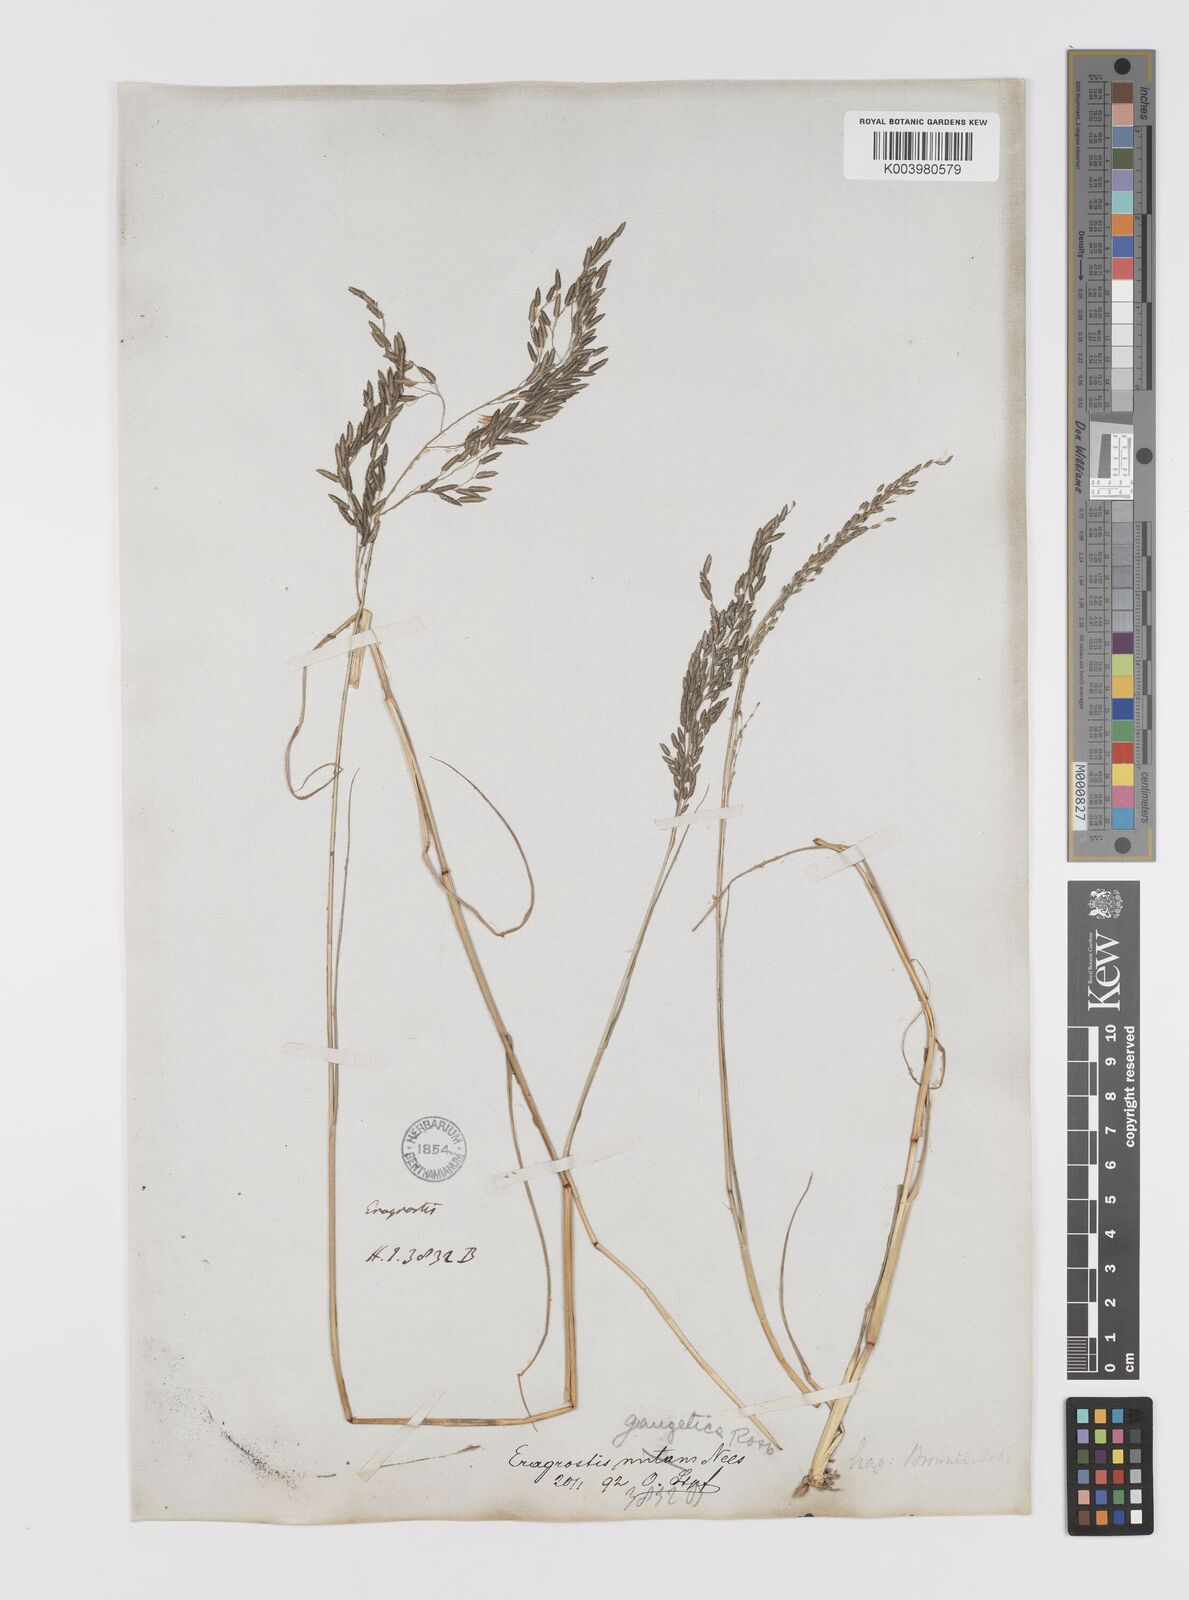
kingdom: Plantae
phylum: Tracheophyta
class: Liliopsida
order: Poales
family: Poaceae
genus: Eragrostis
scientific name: Eragrostis atrovirens
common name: Thalia lovegrass
